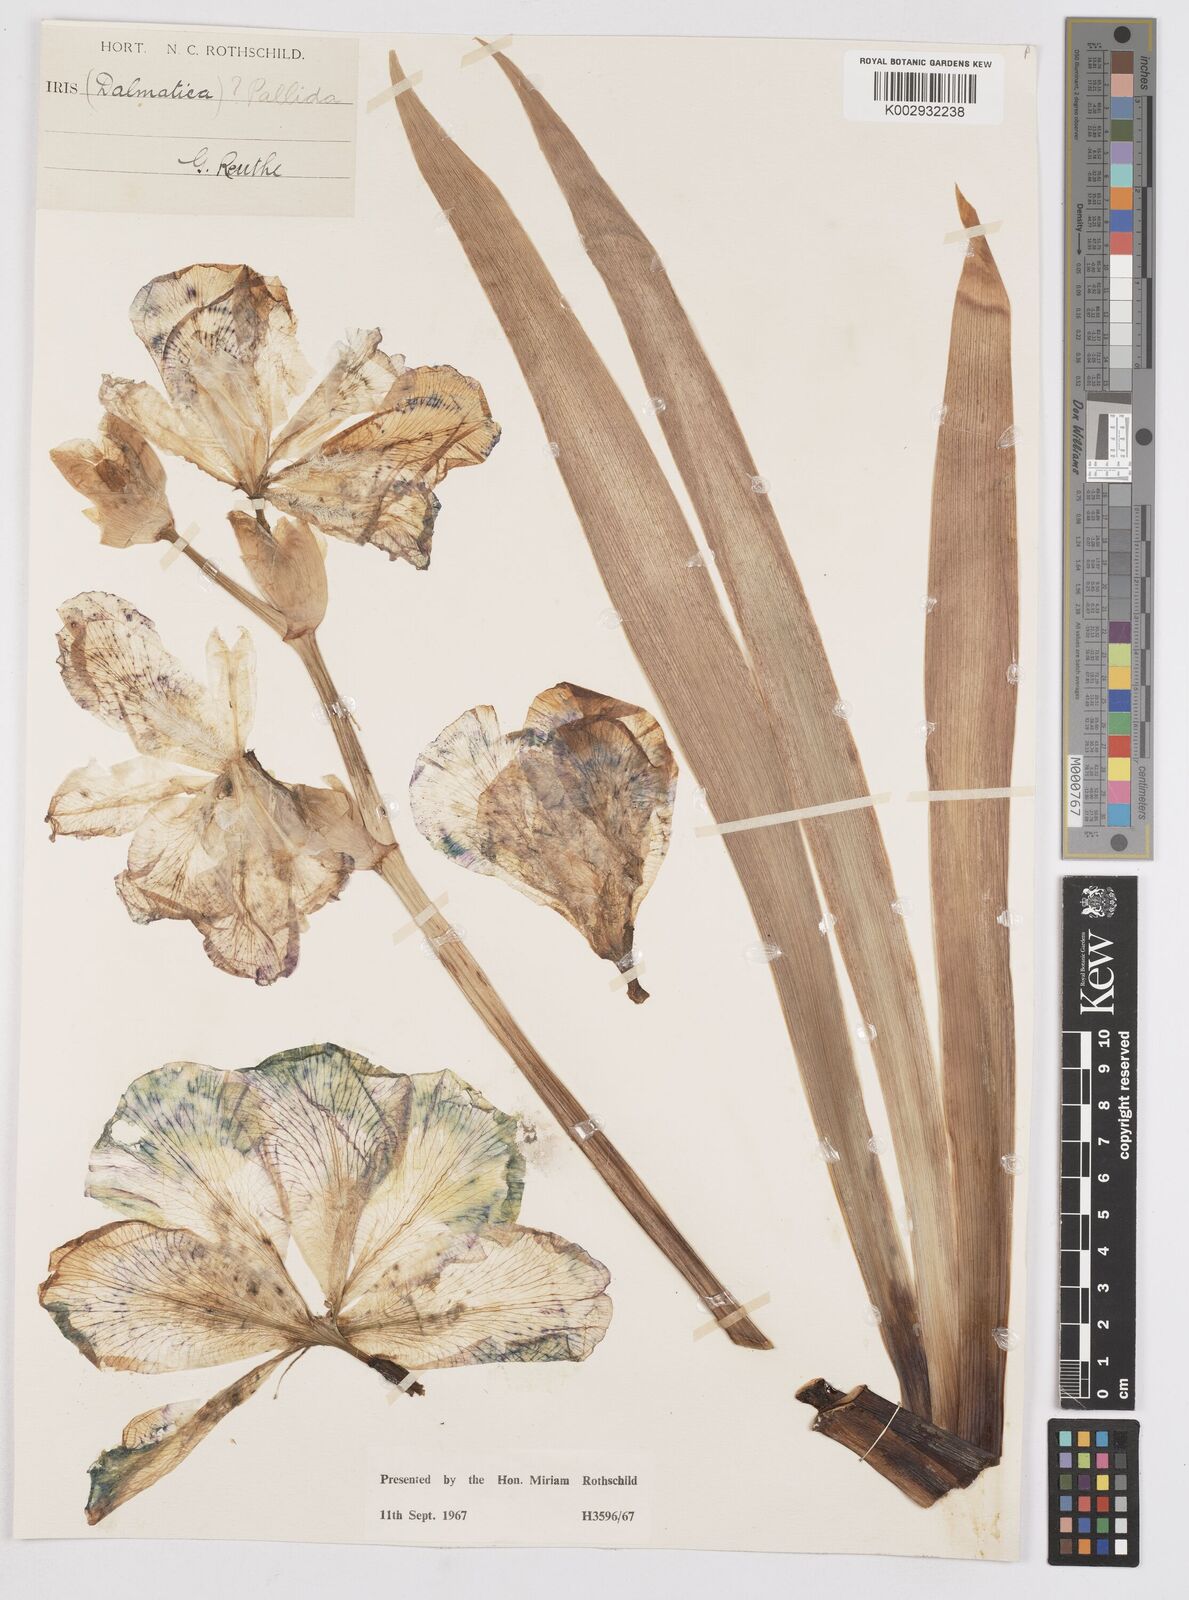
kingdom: Plantae
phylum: Tracheophyta
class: Liliopsida
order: Asparagales
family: Iridaceae
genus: Iris
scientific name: Iris pallida
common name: Sweet iris
